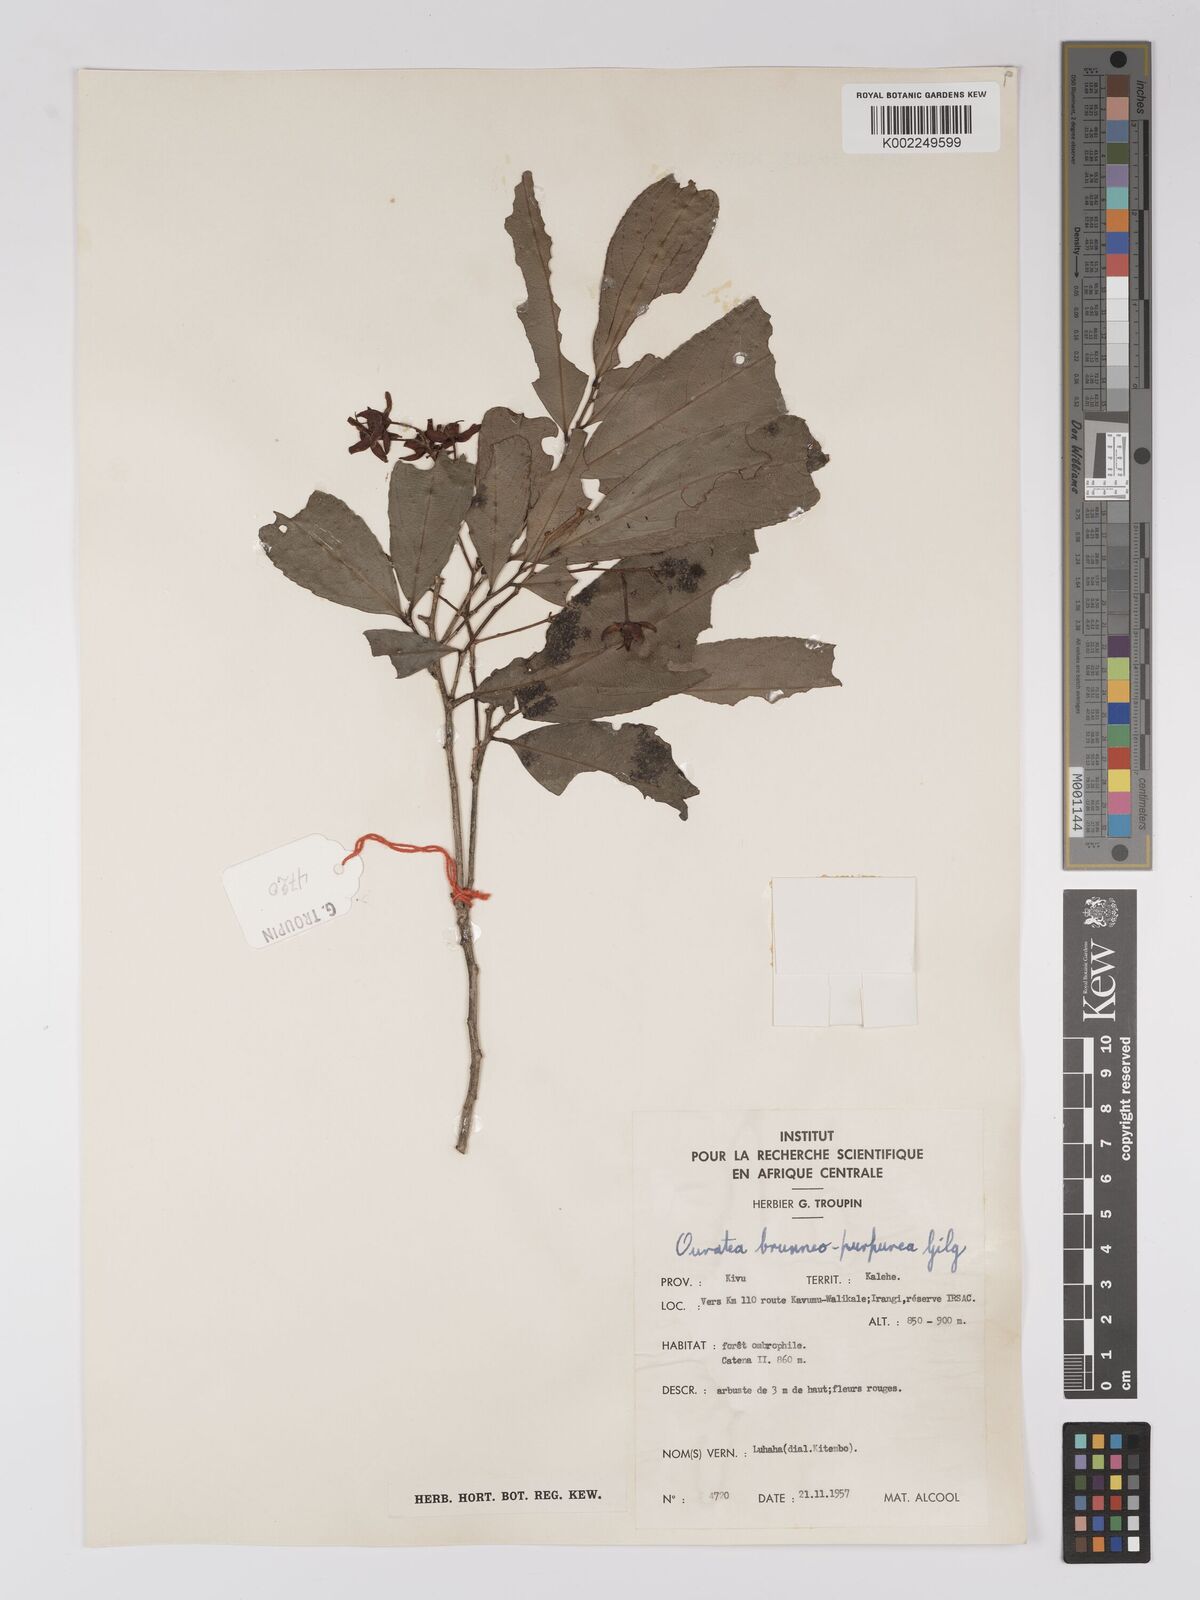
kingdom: Plantae
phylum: Tracheophyta
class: Magnoliopsida
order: Malpighiales
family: Ochnaceae
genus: Campylospermum
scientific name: Campylospermum reticulatum
